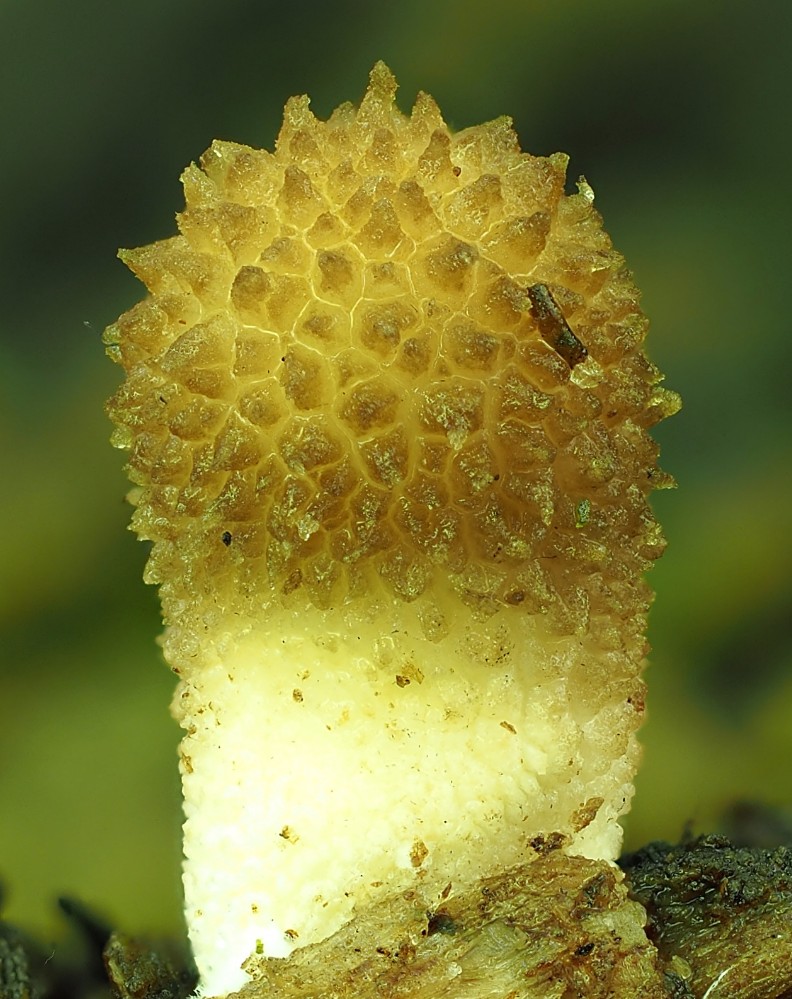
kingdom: Fungi
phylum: Basidiomycota
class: Agaricomycetes
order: Agaricales
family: Lycoperdaceae
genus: Apioperdon
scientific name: Apioperdon pyriforme
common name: pære-støvbold
